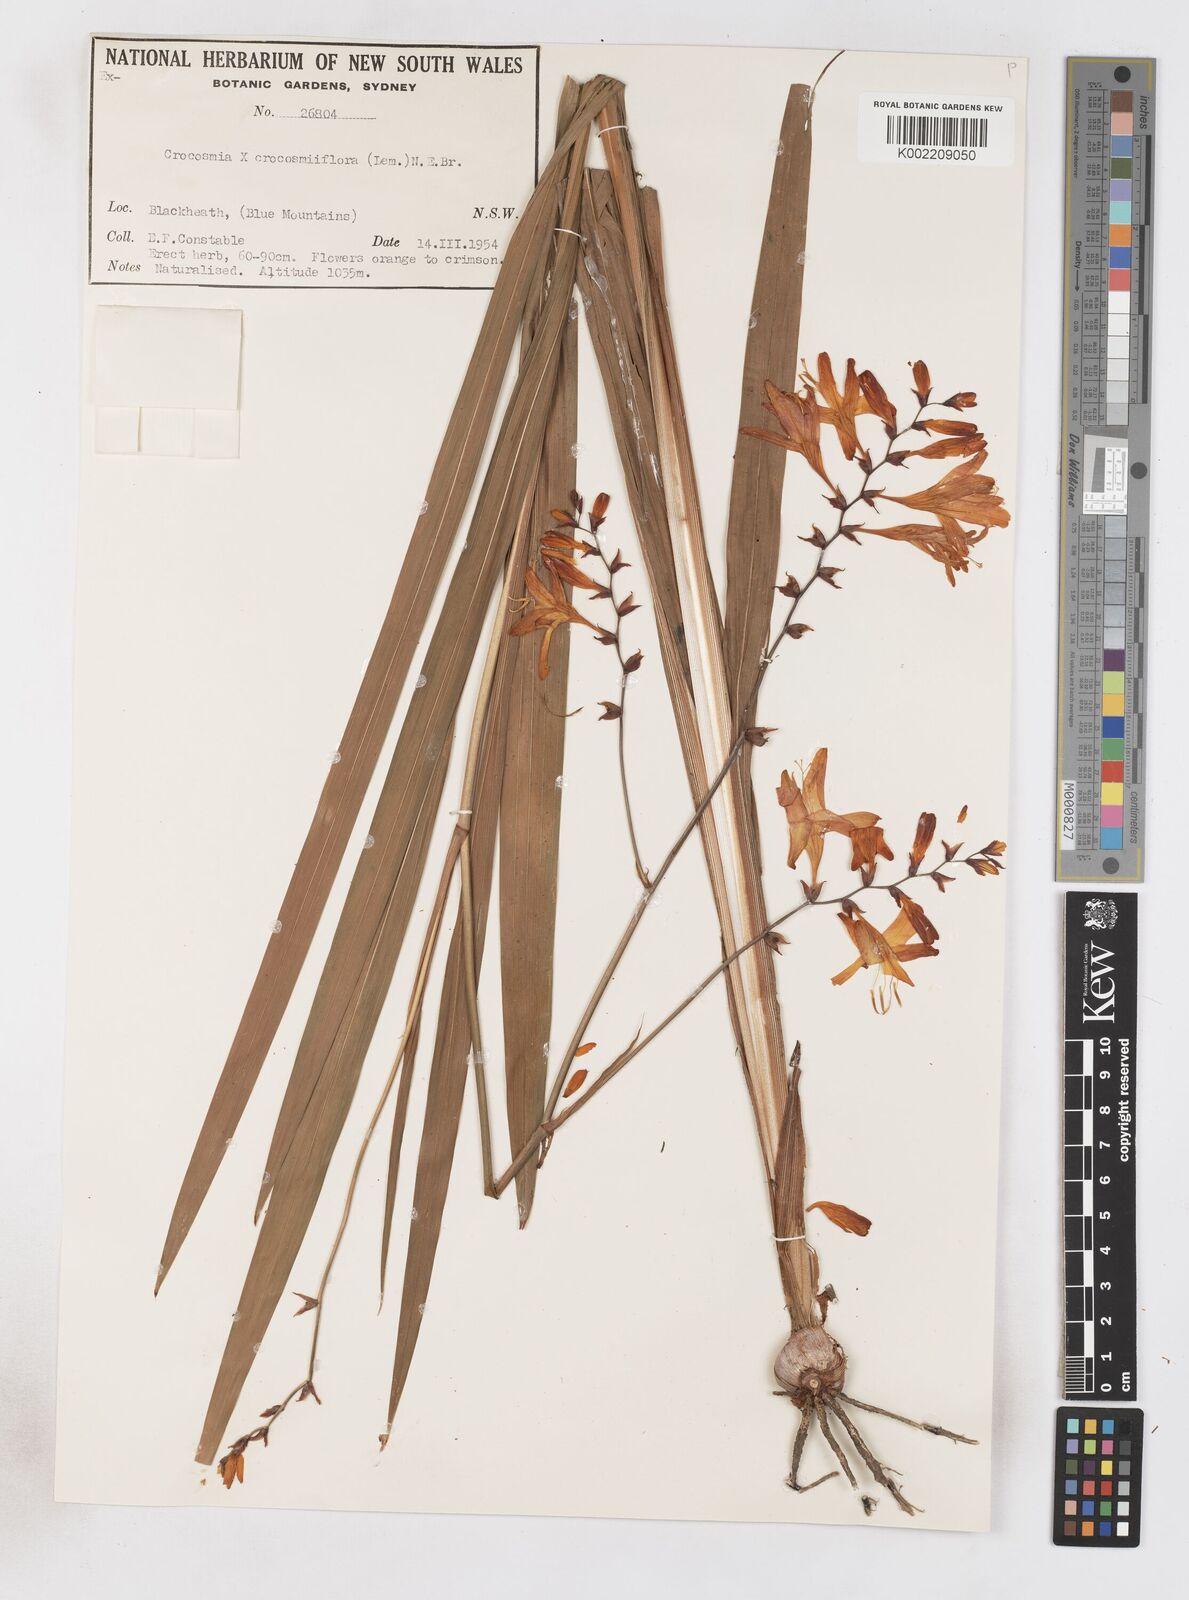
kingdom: Plantae
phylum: Tracheophyta
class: Liliopsida
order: Asparagales
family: Iridaceae
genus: Crocosmia
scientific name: Crocosmia crocosmiiflora
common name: Montbretia
